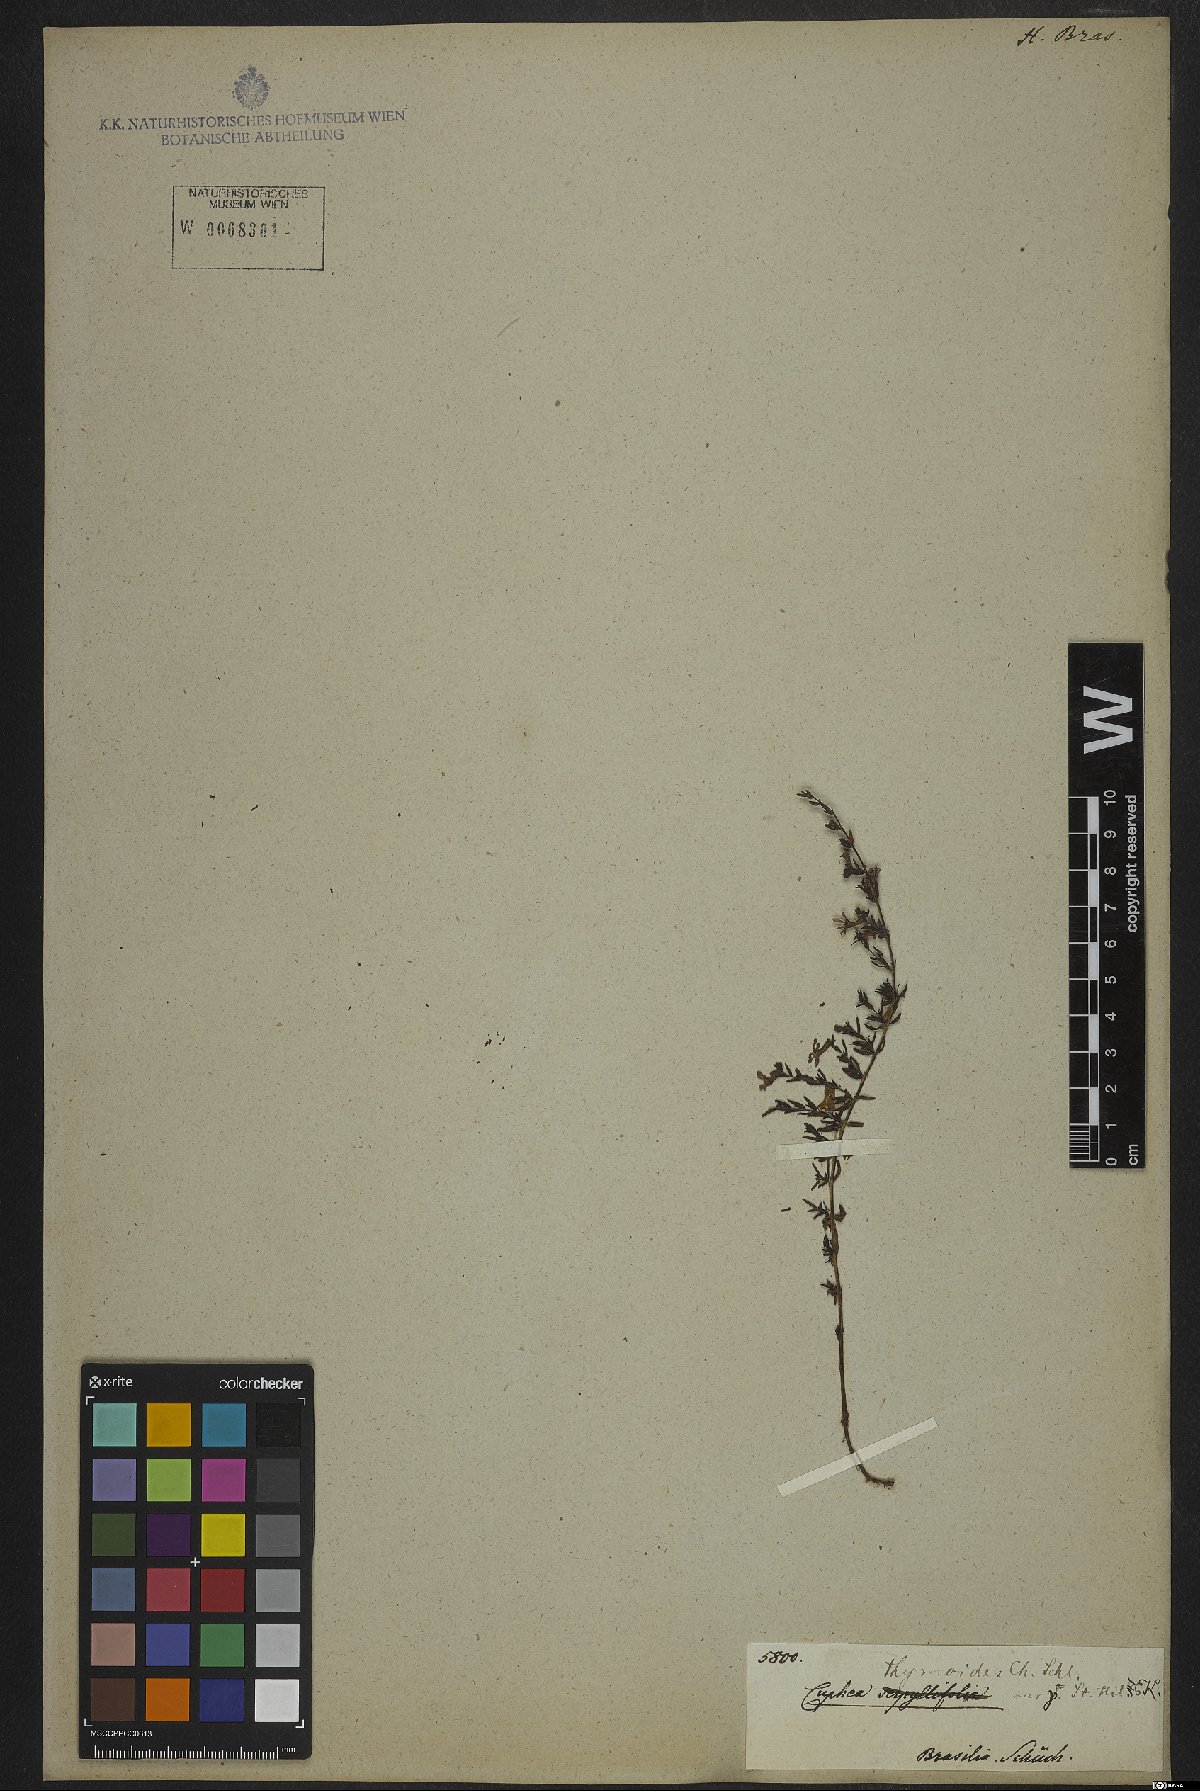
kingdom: Plantae
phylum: Tracheophyta
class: Magnoliopsida
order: Myrtales
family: Lythraceae
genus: Cuphea
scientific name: Cuphea thymoides
